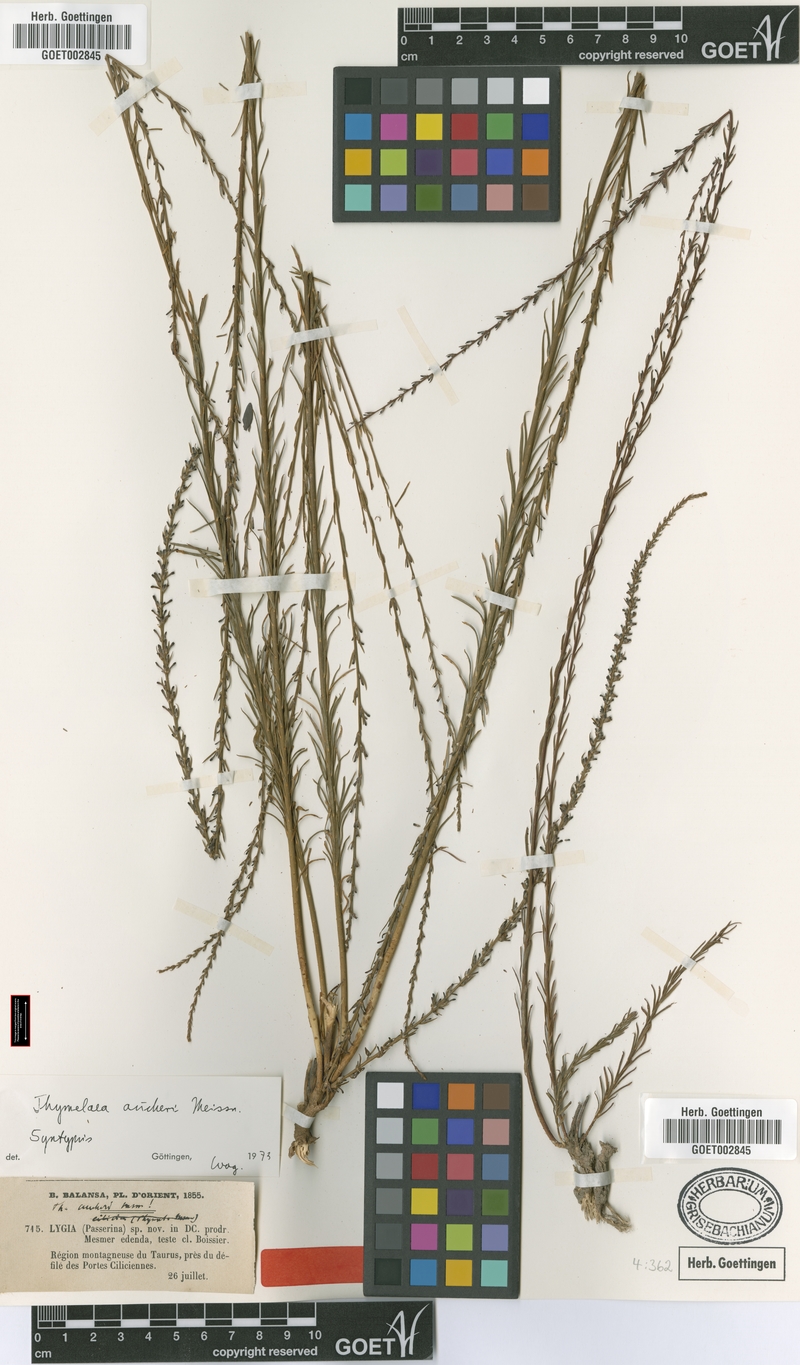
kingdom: Plantae
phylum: Tracheophyta
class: Magnoliopsida
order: Malvales
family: Thymelaeaceae
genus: Thymelaea
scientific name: Thymelaea aucheri
